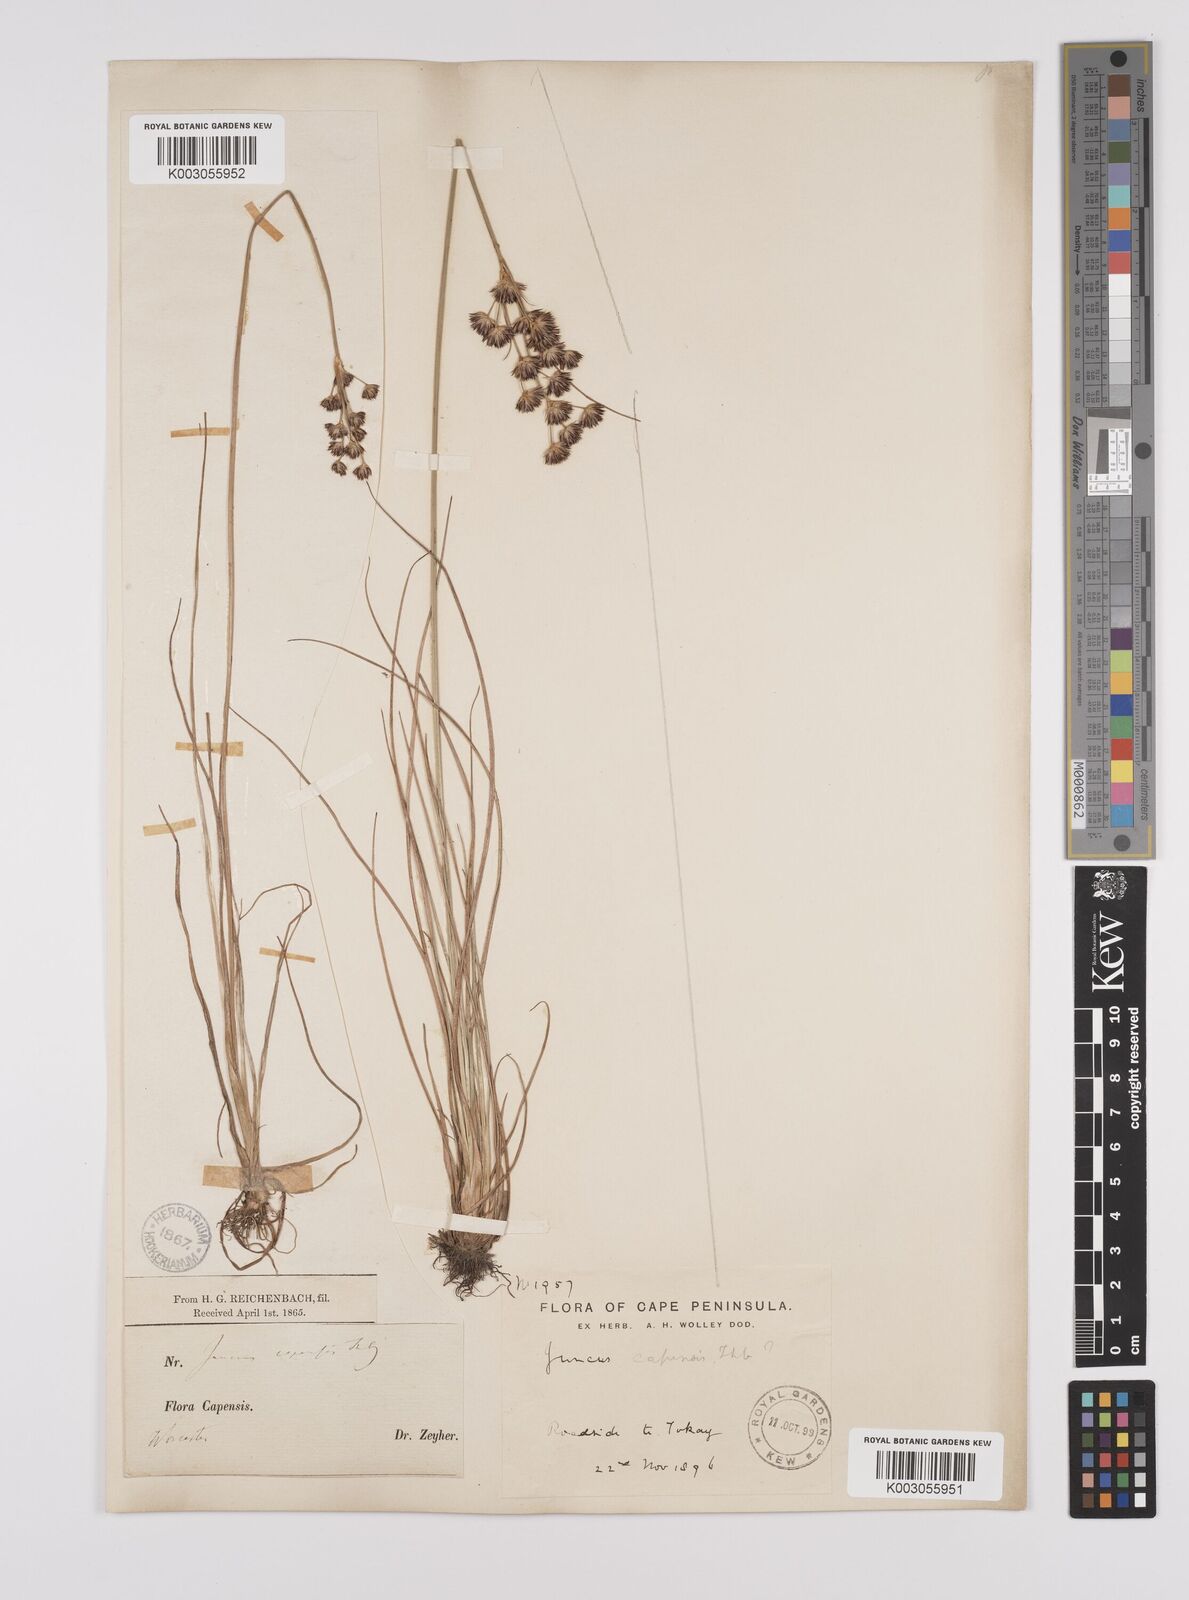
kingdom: Plantae
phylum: Tracheophyta
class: Liliopsida
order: Poales
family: Juncaceae
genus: Juncus
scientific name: Juncus capensis
